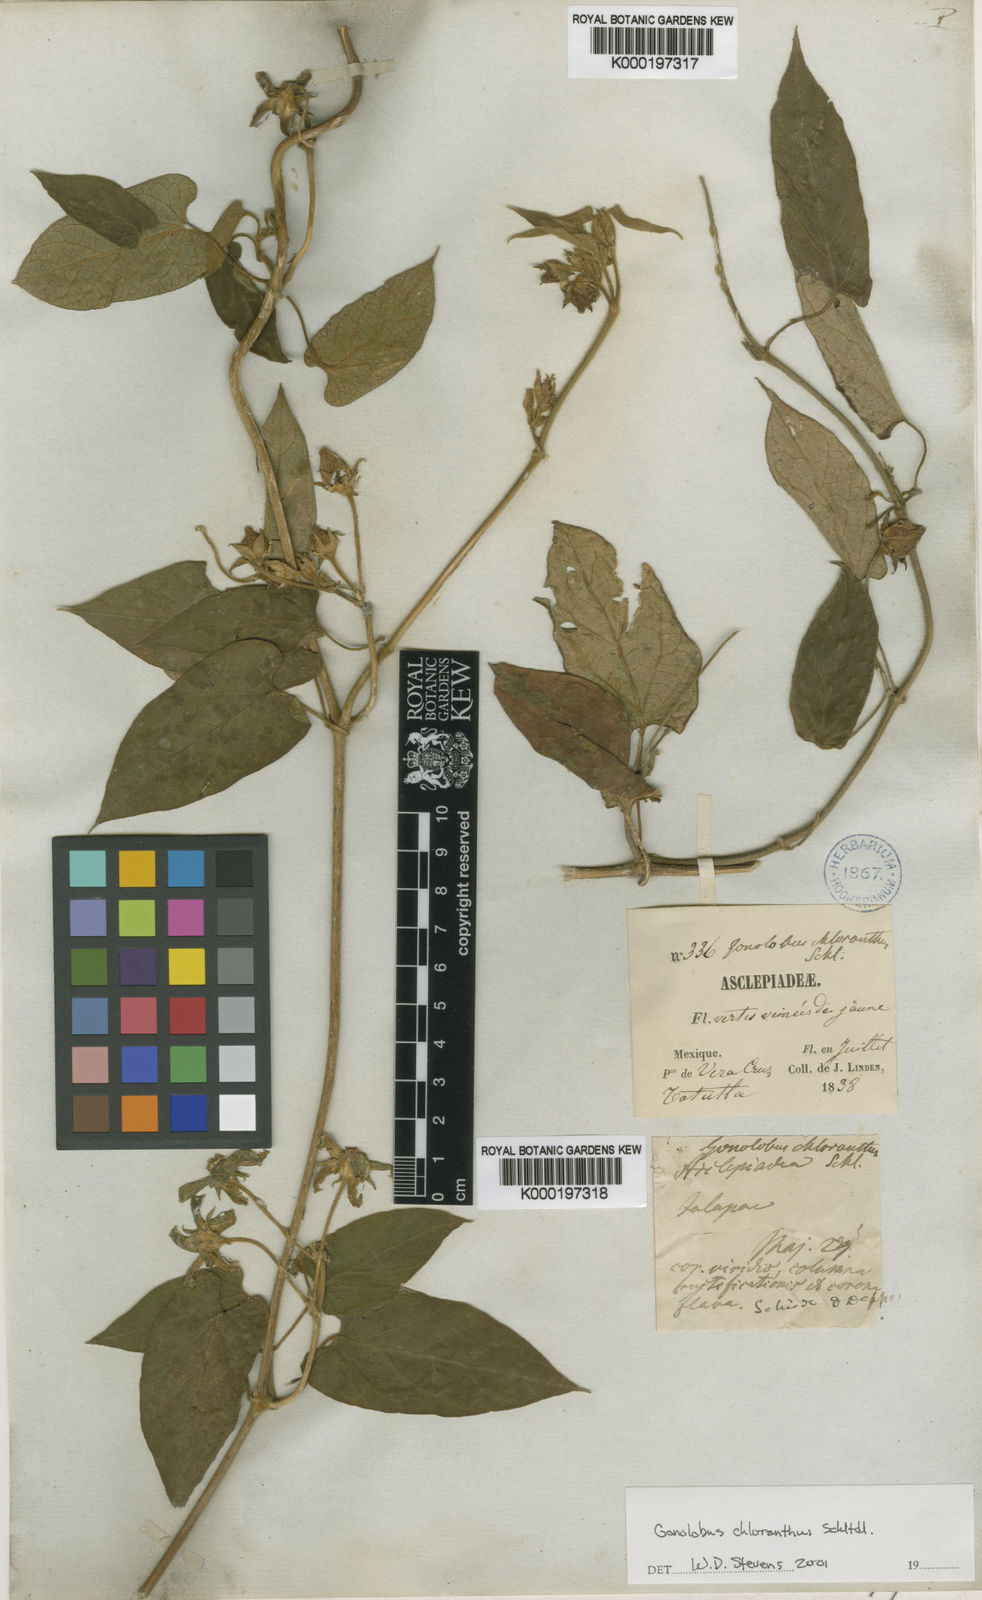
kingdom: Plantae
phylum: Tracheophyta
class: Magnoliopsida
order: Gentianales
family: Apocynaceae
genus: Gonolobus
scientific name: Gonolobus chloranthus
